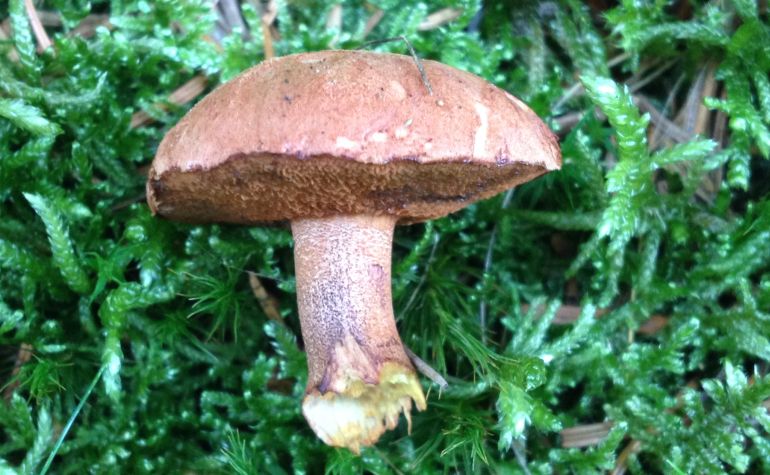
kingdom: Fungi
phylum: Basidiomycota
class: Agaricomycetes
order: Boletales
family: Boletaceae
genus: Chalciporus
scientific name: Chalciporus piperatus
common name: peberrørhat
